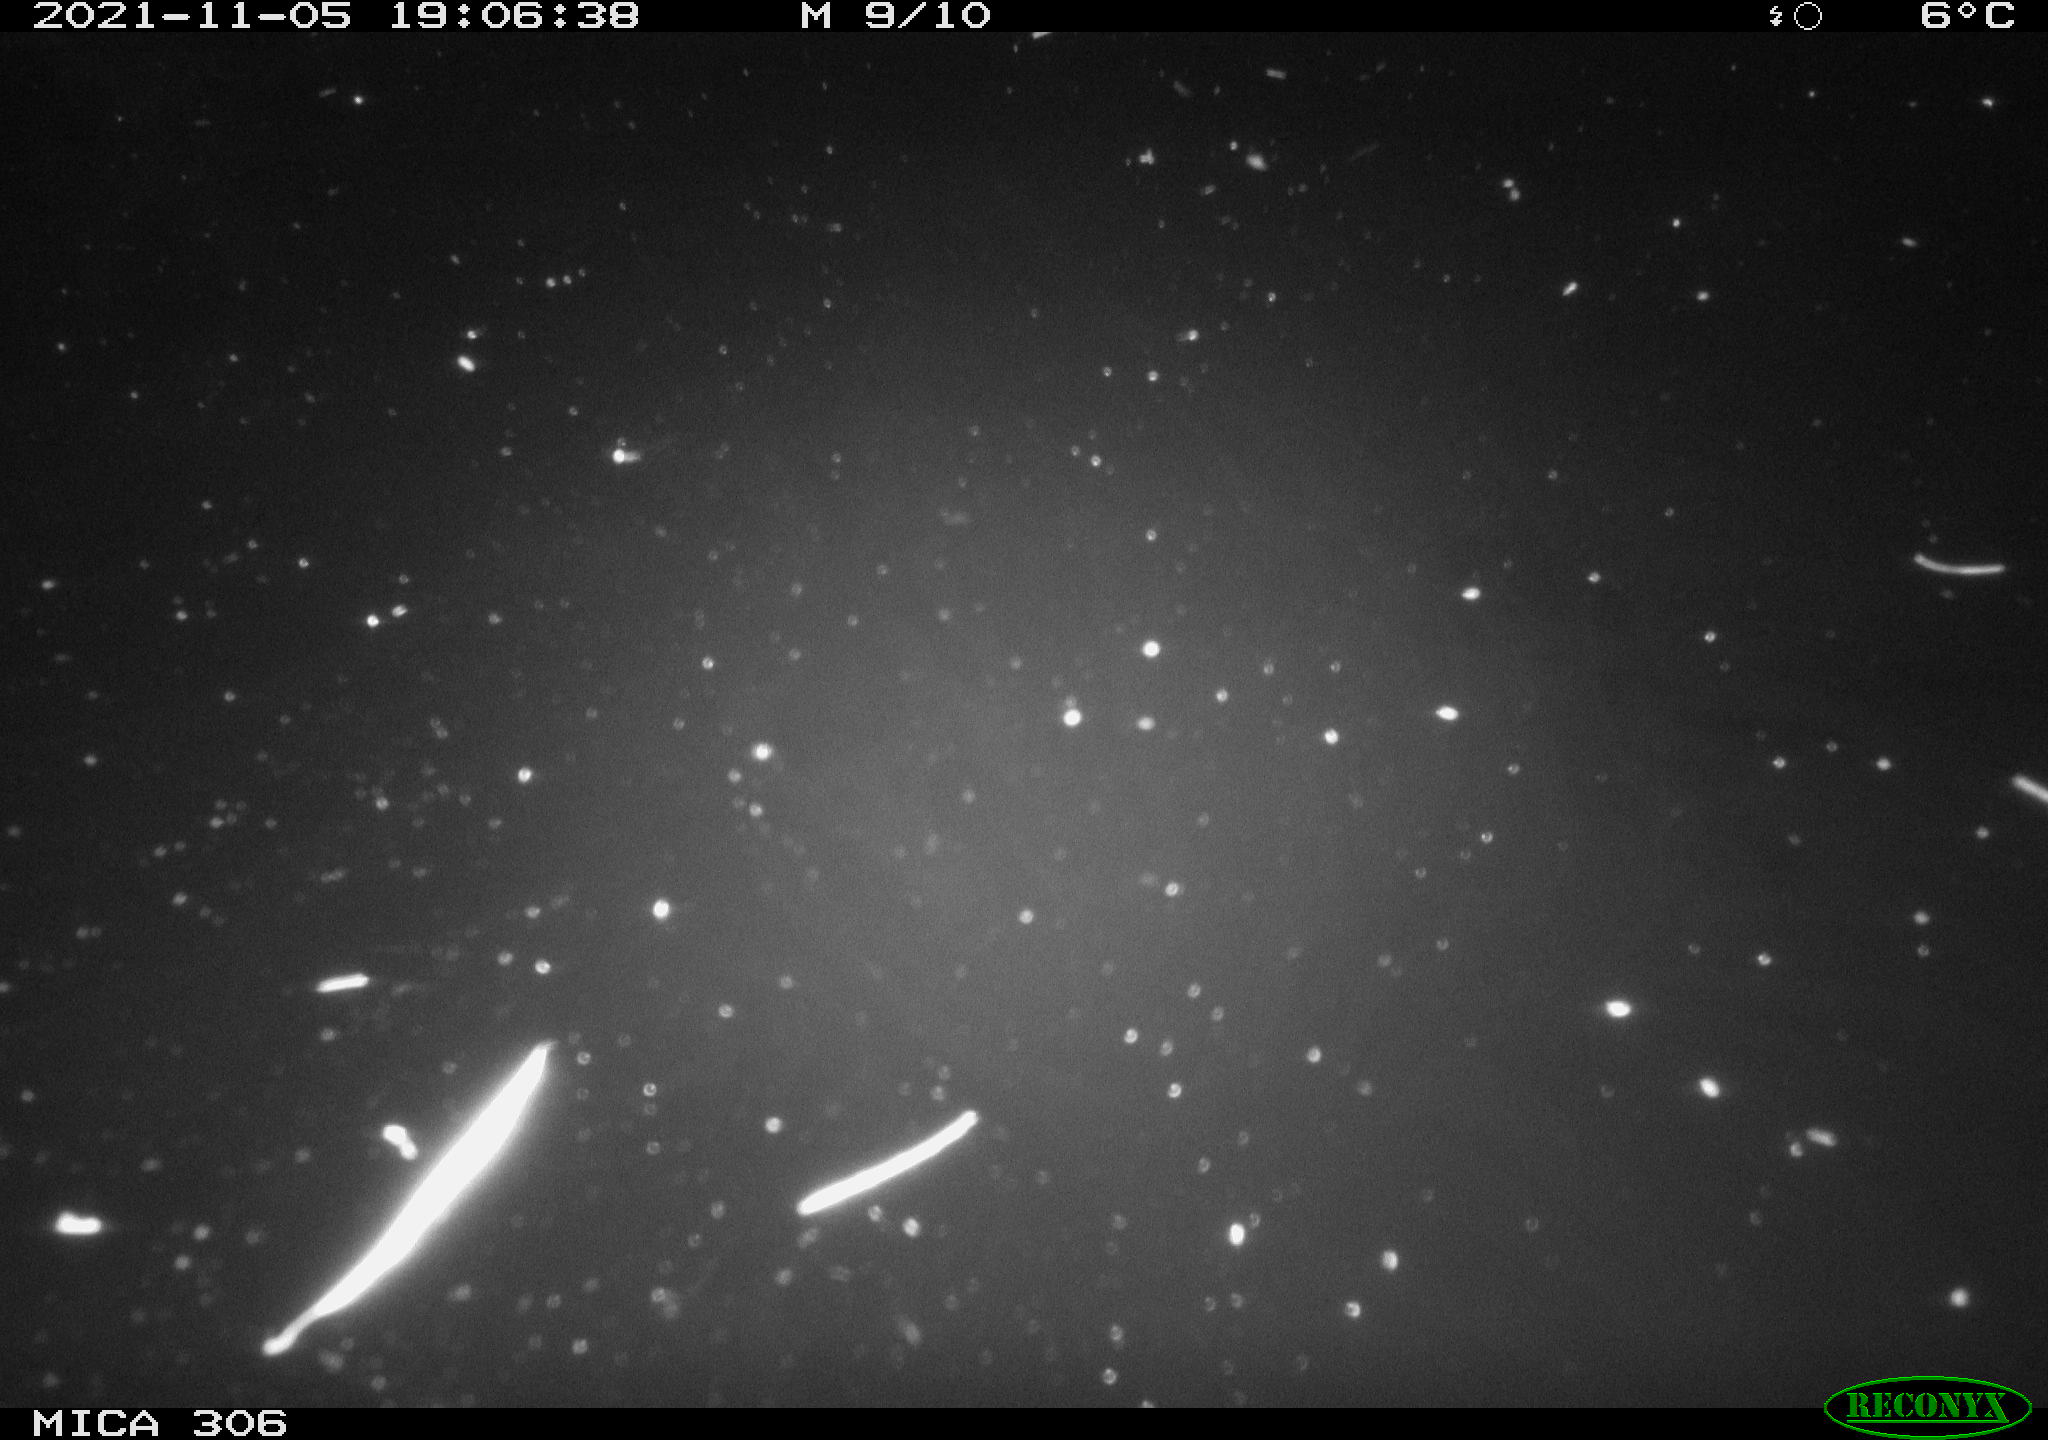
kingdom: Animalia
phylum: Chordata
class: Mammalia
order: Rodentia
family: Cricetidae
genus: Ondatra
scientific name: Ondatra zibethicus
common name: Muskrat
